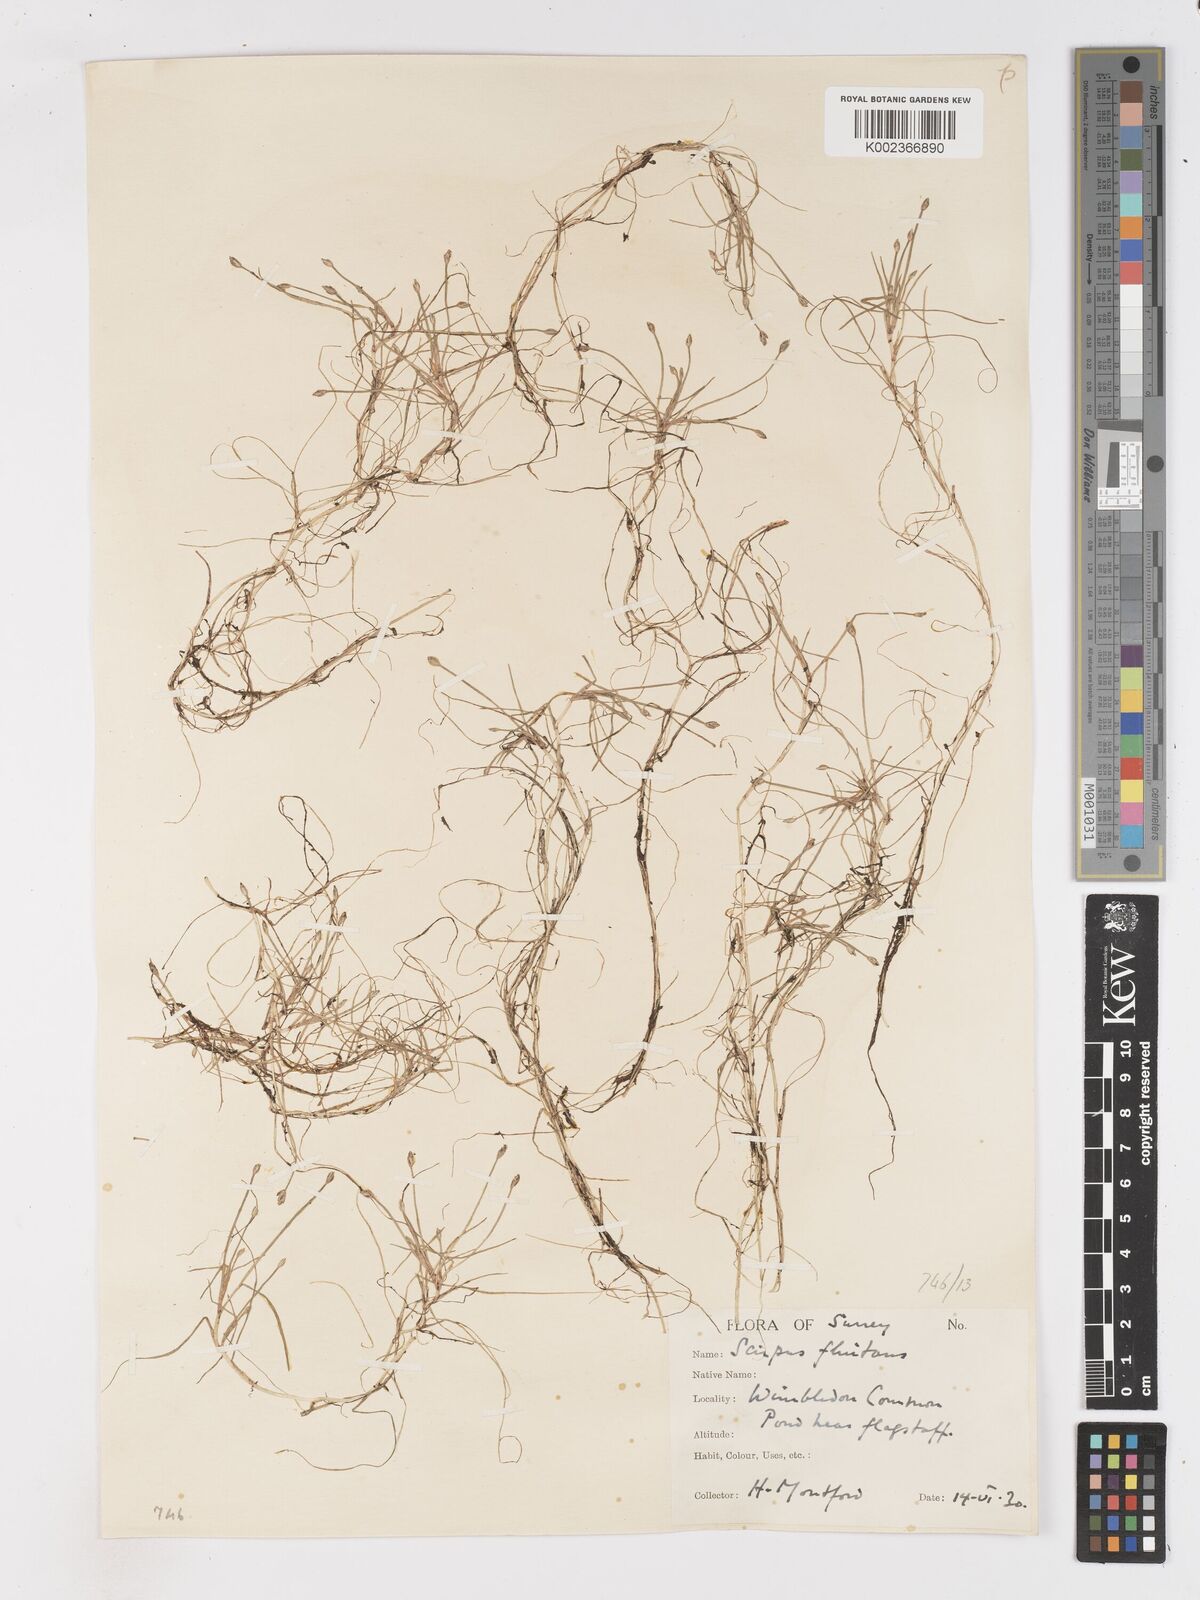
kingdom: Plantae
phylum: Tracheophyta
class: Liliopsida
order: Poales
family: Cyperaceae
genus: Isolepis
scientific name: Isolepis fluitans
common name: Floating club-rush
